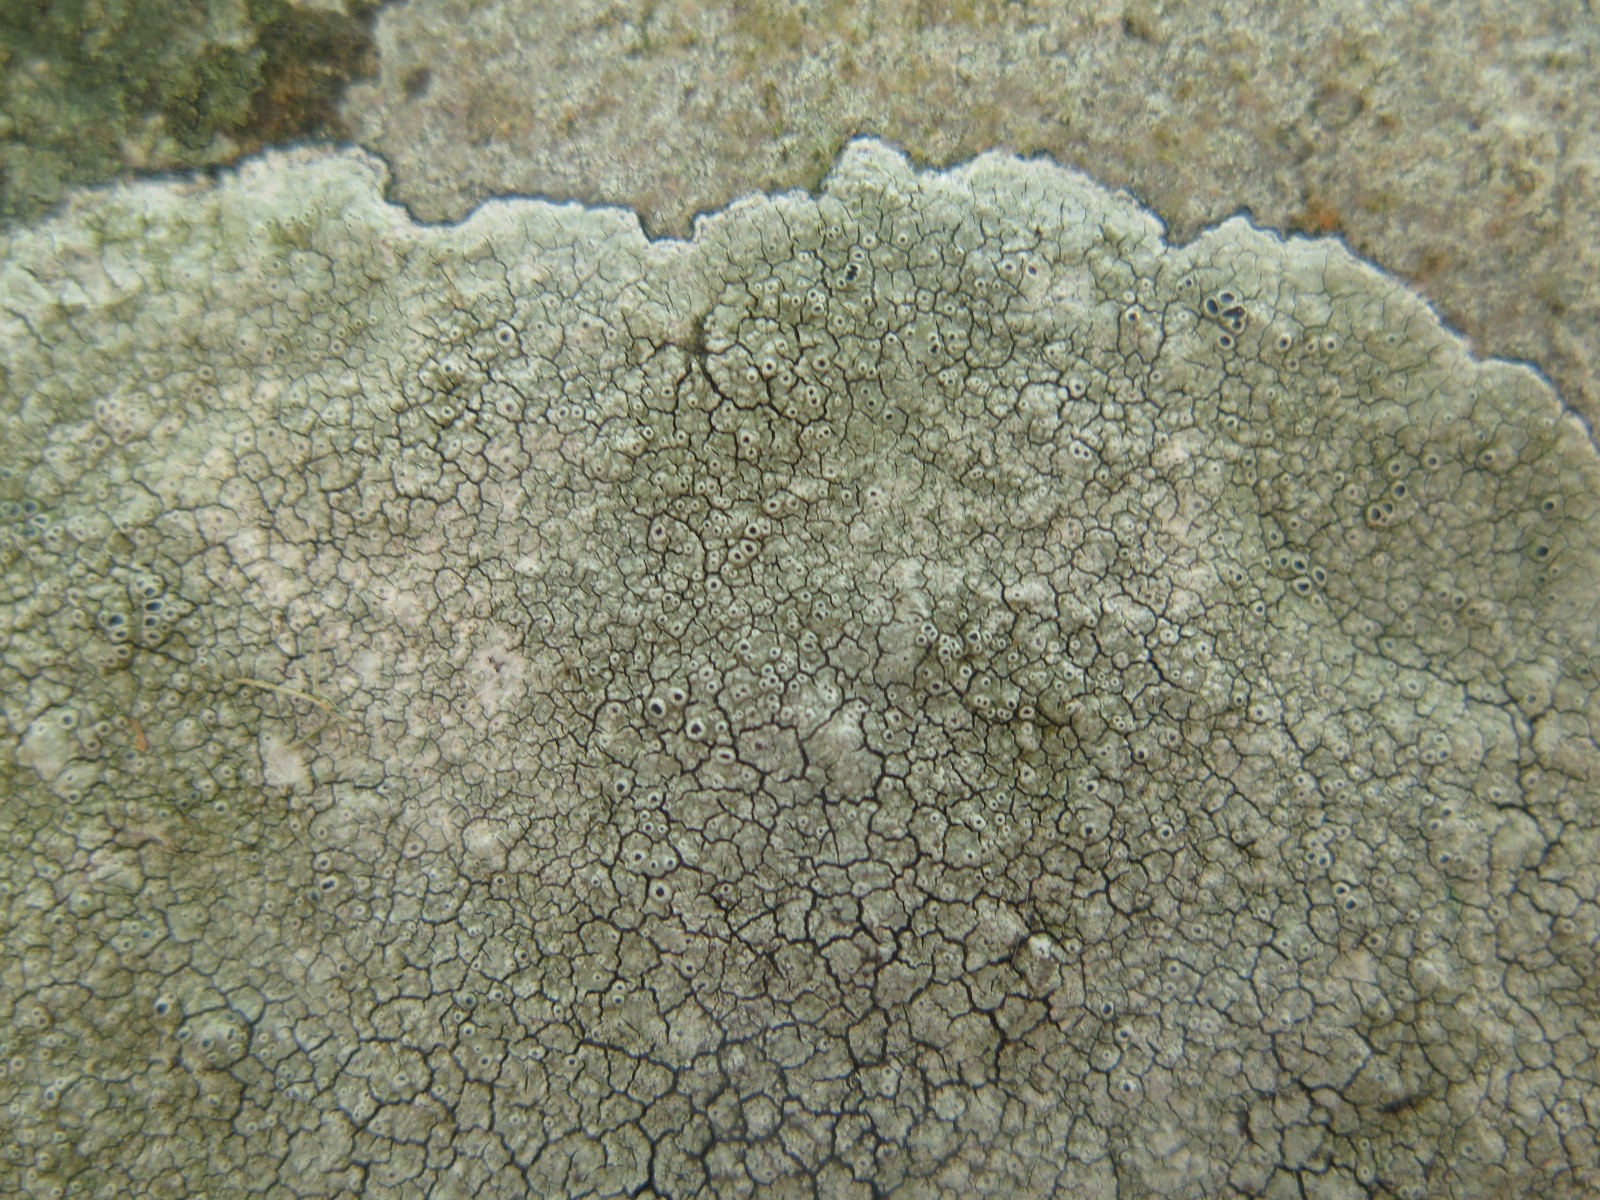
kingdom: Fungi
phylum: Ascomycota
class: Lecanoromycetes
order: Pertusariales
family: Megasporaceae
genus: Aspicilia
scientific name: Aspicilia cinerea
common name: grå hulskivelav
